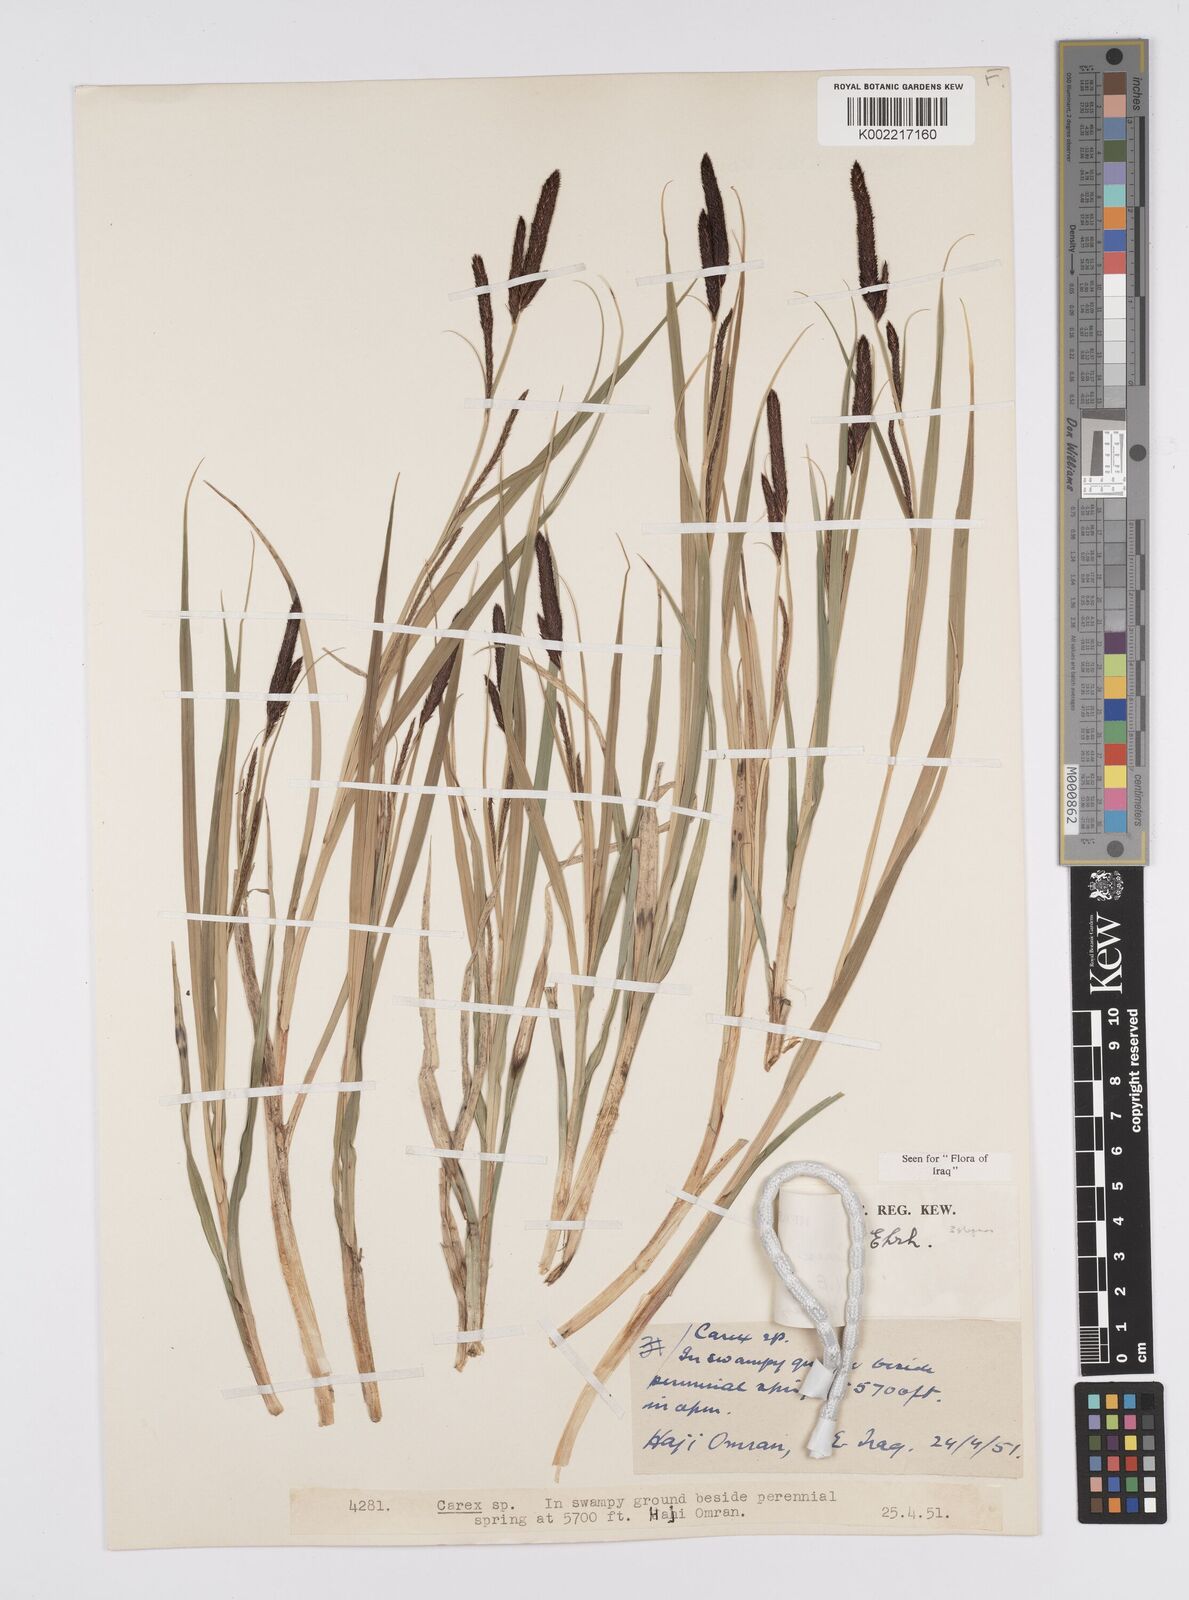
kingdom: Plantae
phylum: Tracheophyta
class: Liliopsida
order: Poales
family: Cyperaceae
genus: Carex
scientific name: Carex acutiformis
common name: Lesser pond-sedge
